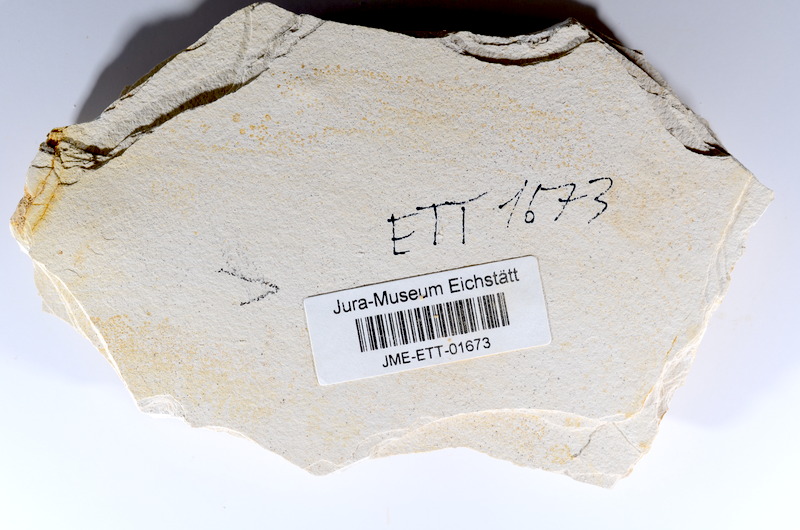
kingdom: Animalia
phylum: Chordata
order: Salmoniformes
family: Orthogonikleithridae
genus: Orthogonikleithrus
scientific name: Orthogonikleithrus hoelli
